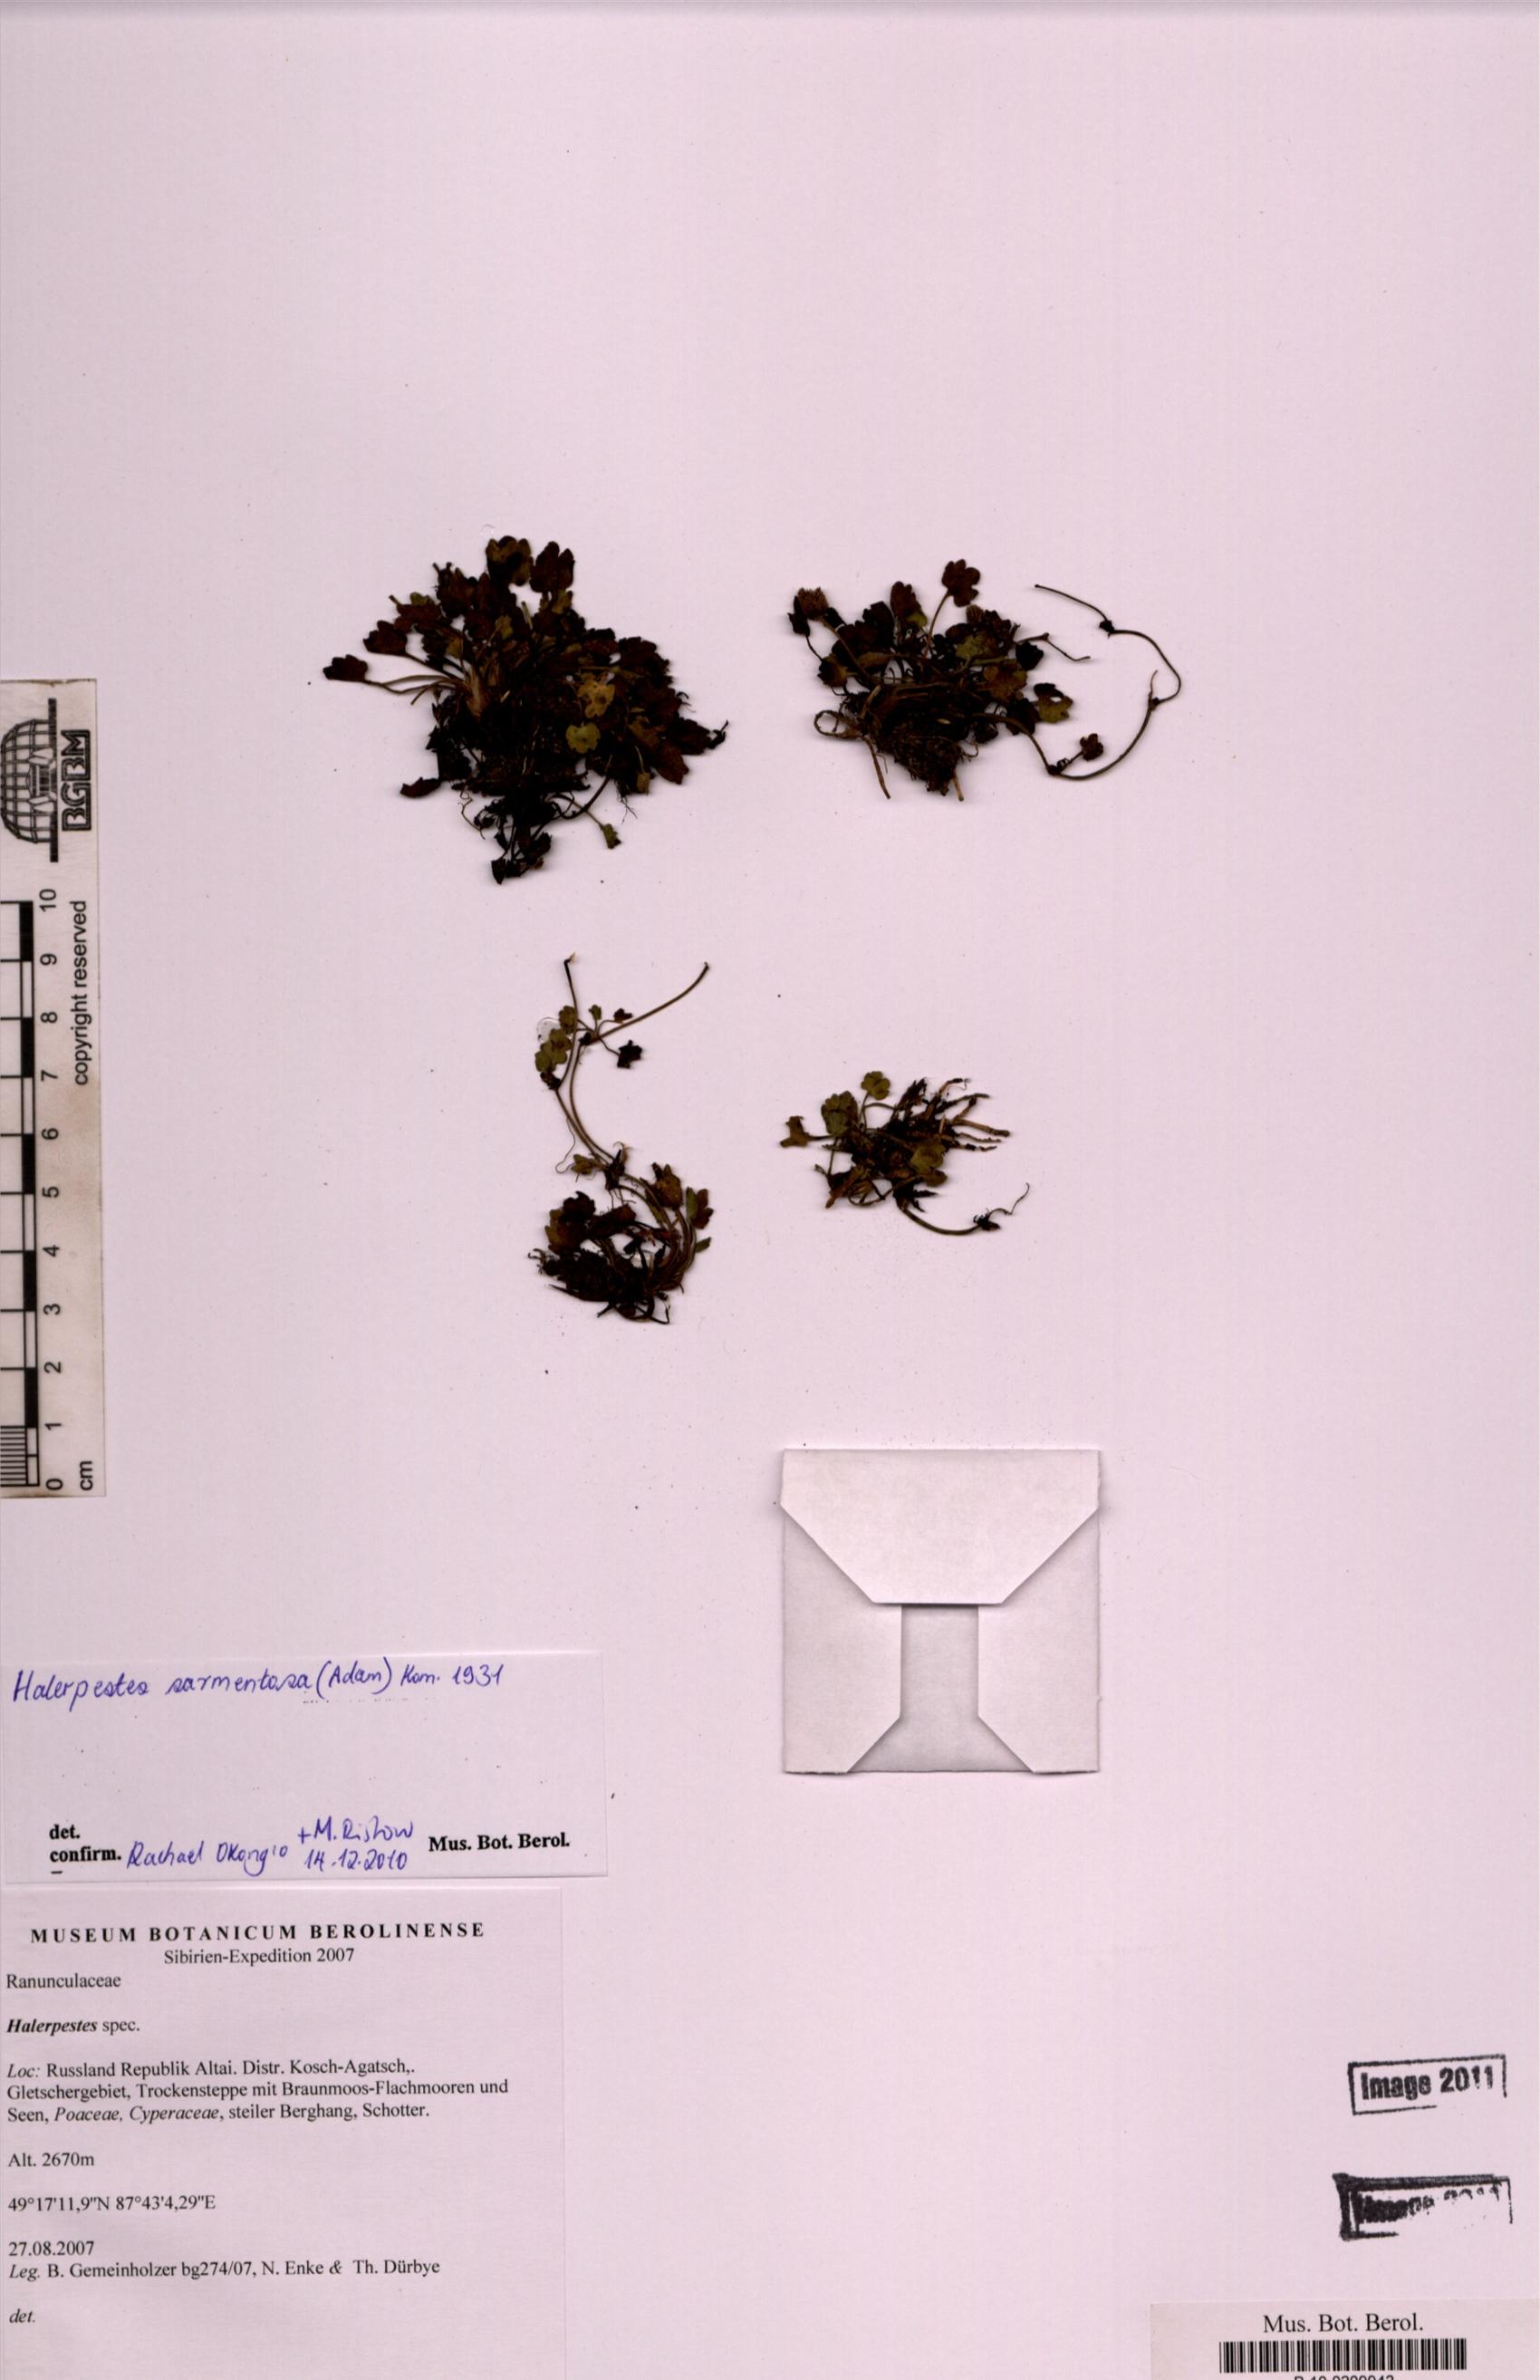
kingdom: Plantae
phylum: Tracheophyta
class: Magnoliopsida
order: Ranunculales
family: Ranunculaceae
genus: Halerpestes
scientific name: Halerpestes sarmentosus
